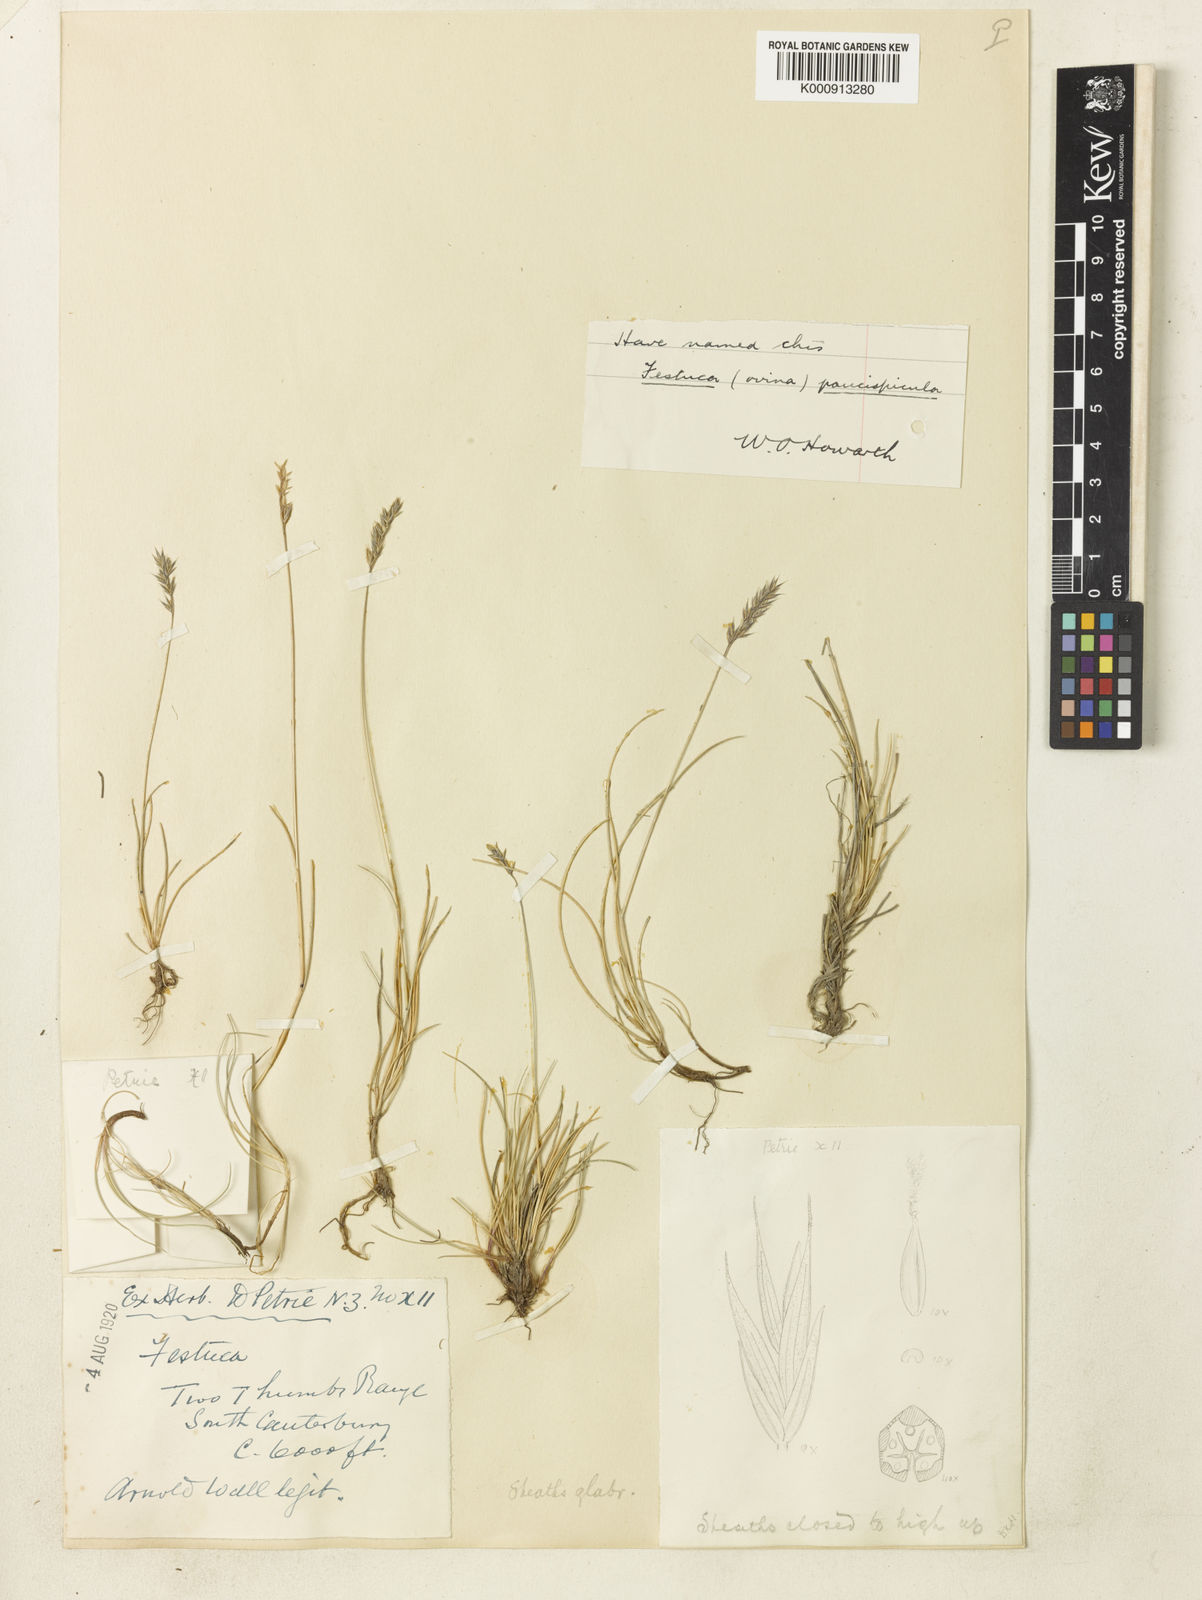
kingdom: Plantae
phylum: Tracheophyta
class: Liliopsida
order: Poales
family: Poaceae
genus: Festuca
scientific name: Festuca rubra
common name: Red fescue
